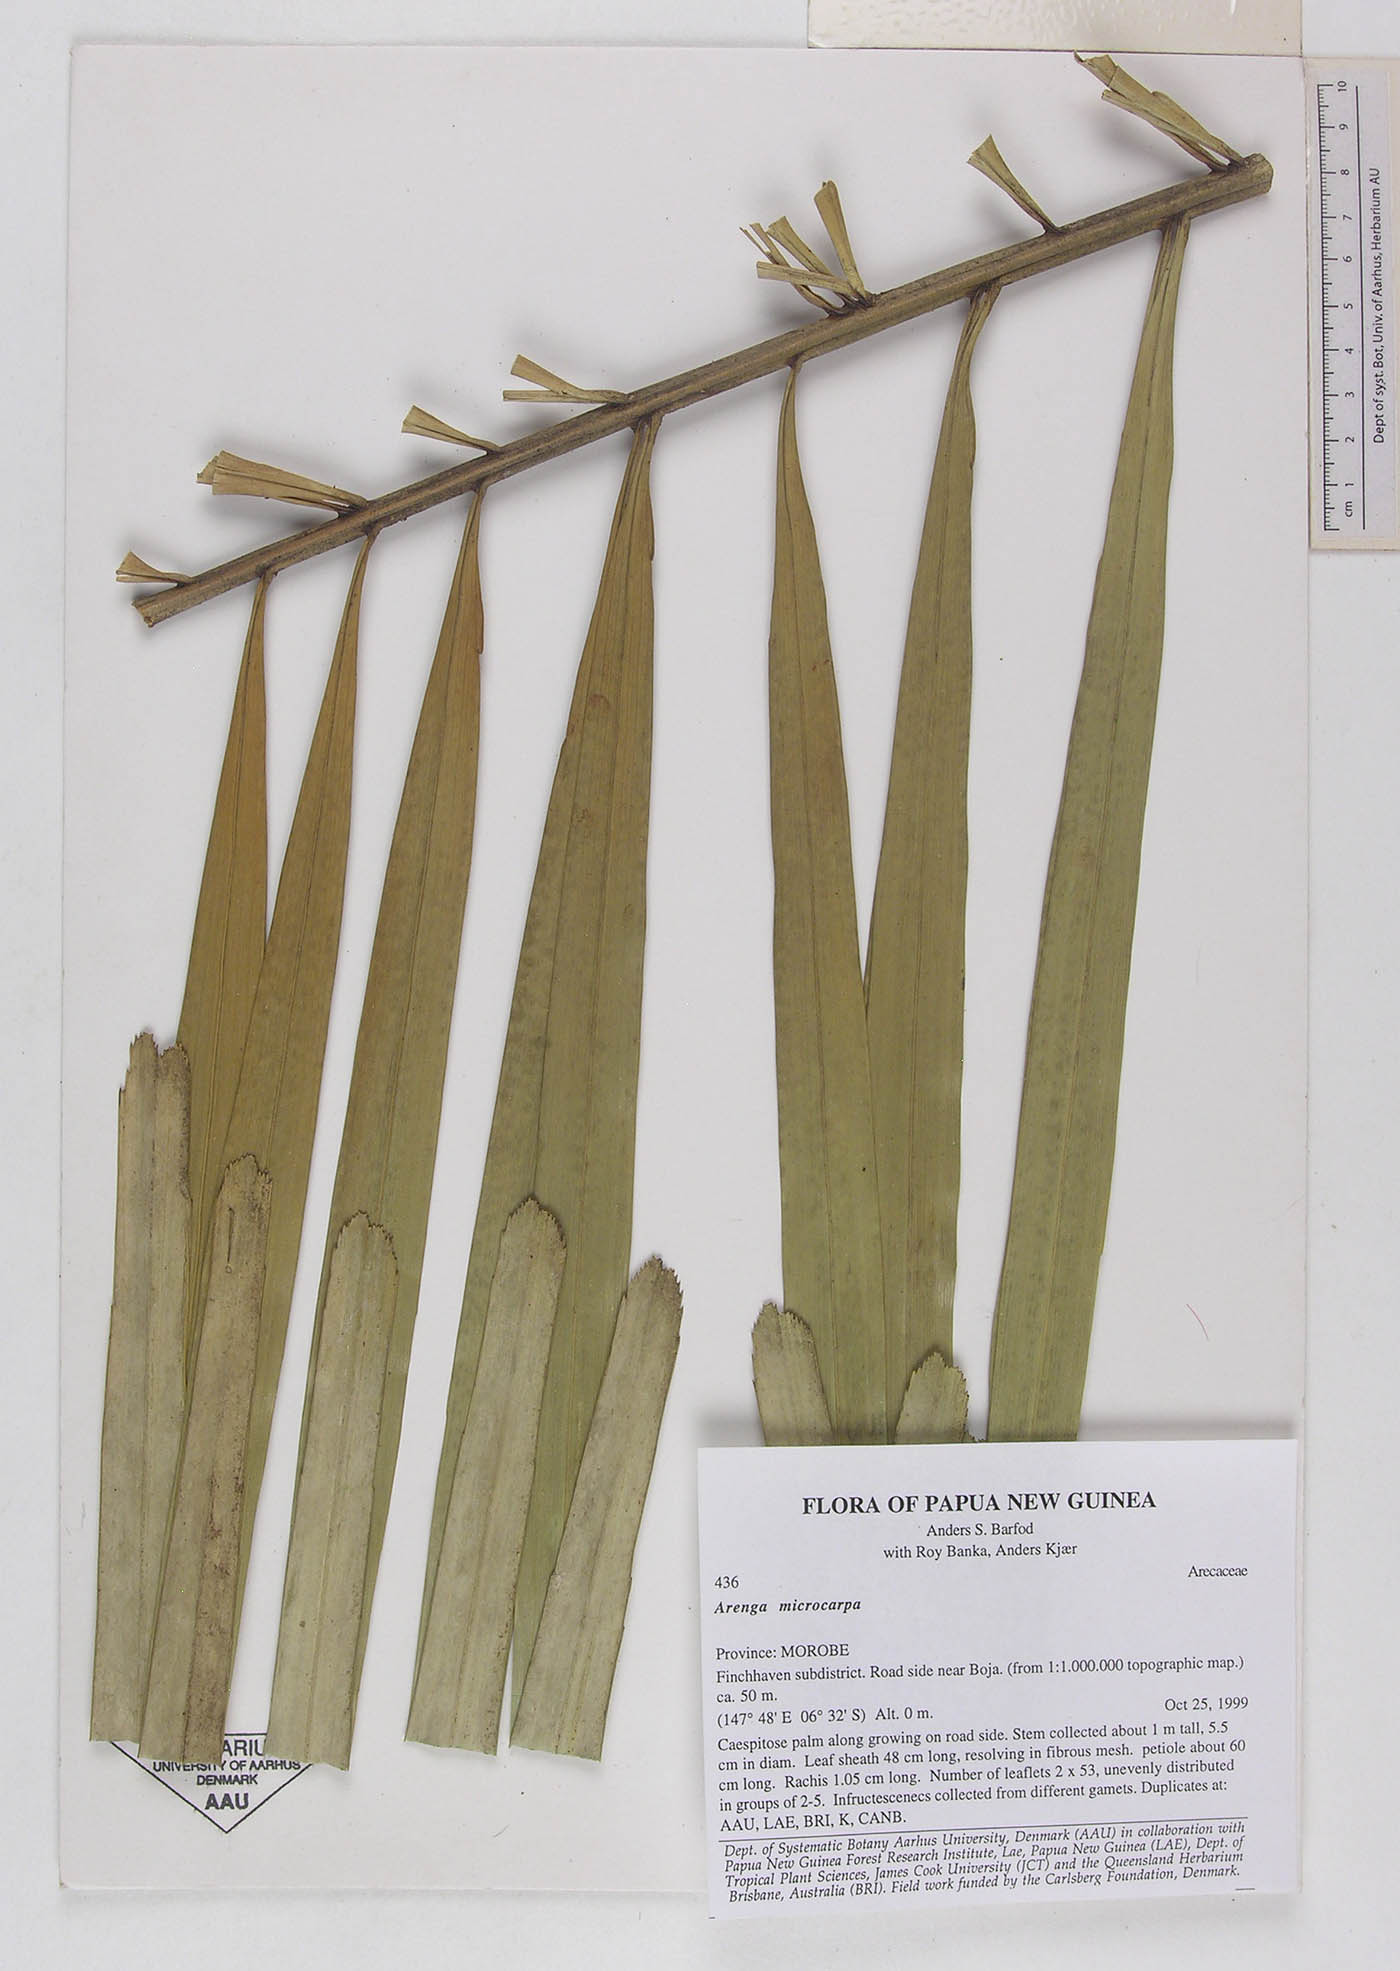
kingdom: Plantae
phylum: Tracheophyta
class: Liliopsida
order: Arecales
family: Arecaceae
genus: Arenga
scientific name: Arenga microcarpa
